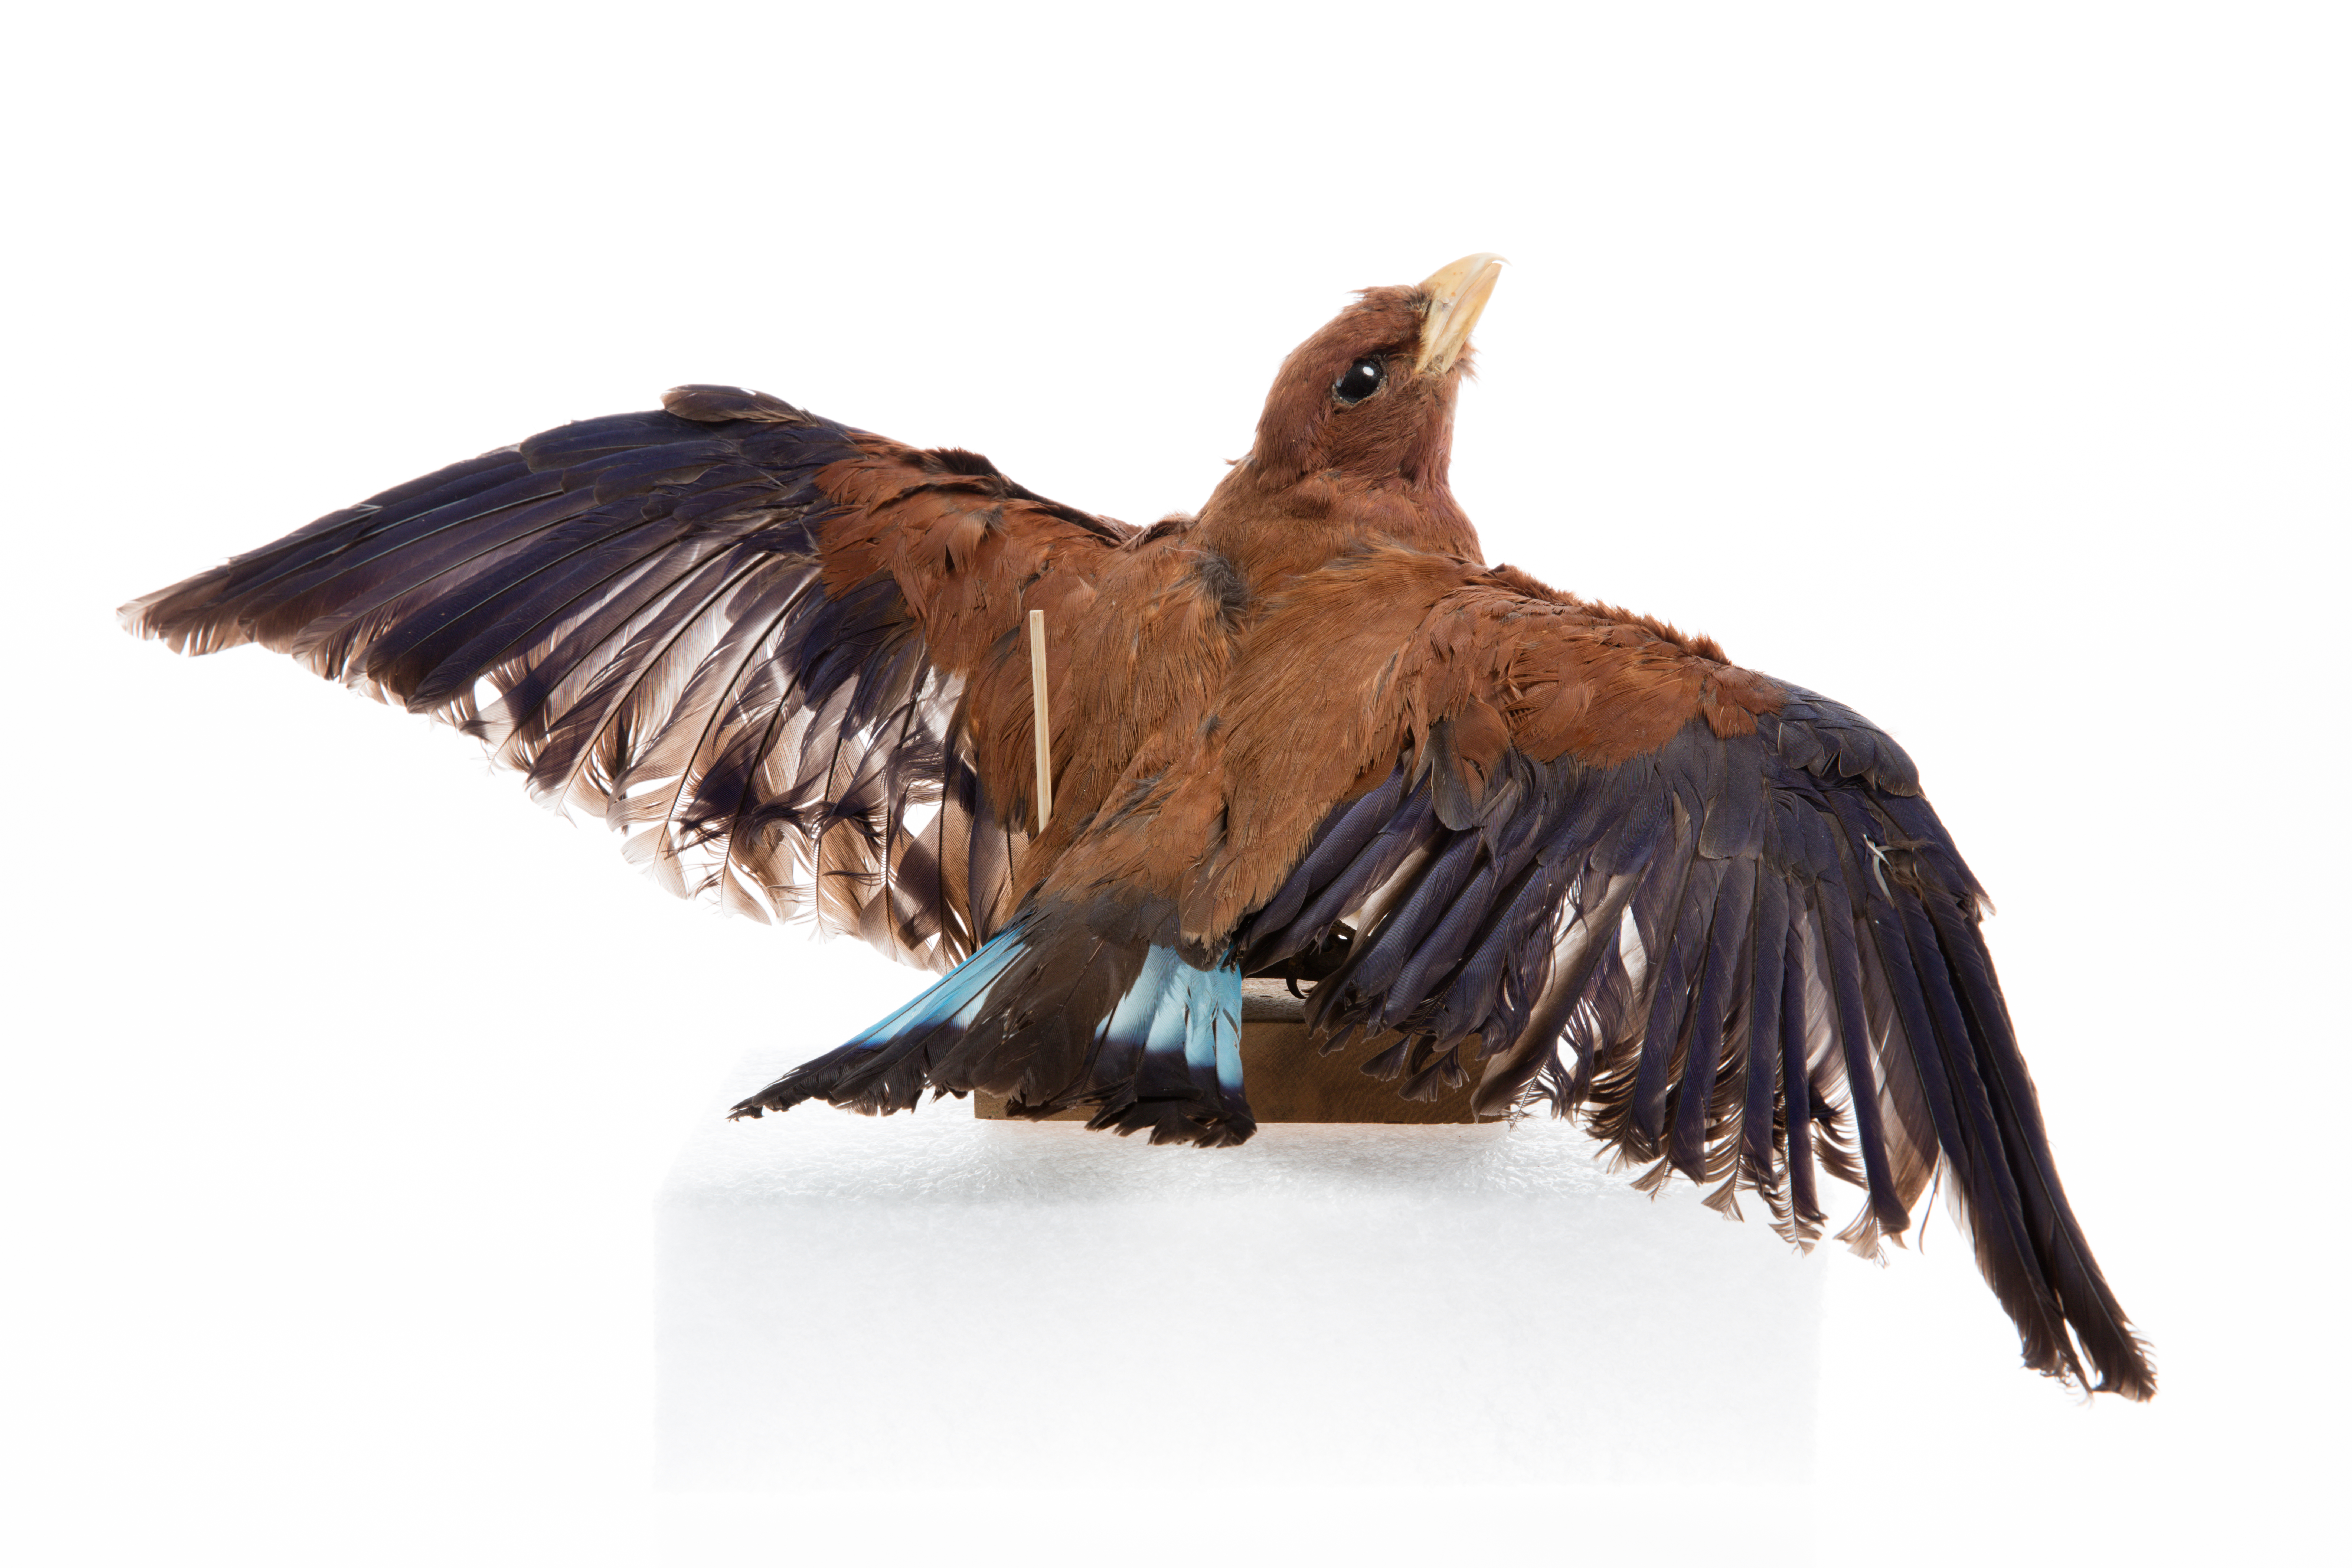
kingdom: Animalia
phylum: Chordata
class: Aves
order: Coraciiformes
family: Coraciidae
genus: Eurystomus
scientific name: Eurystomus glaucurus
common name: Broad-billed roller
